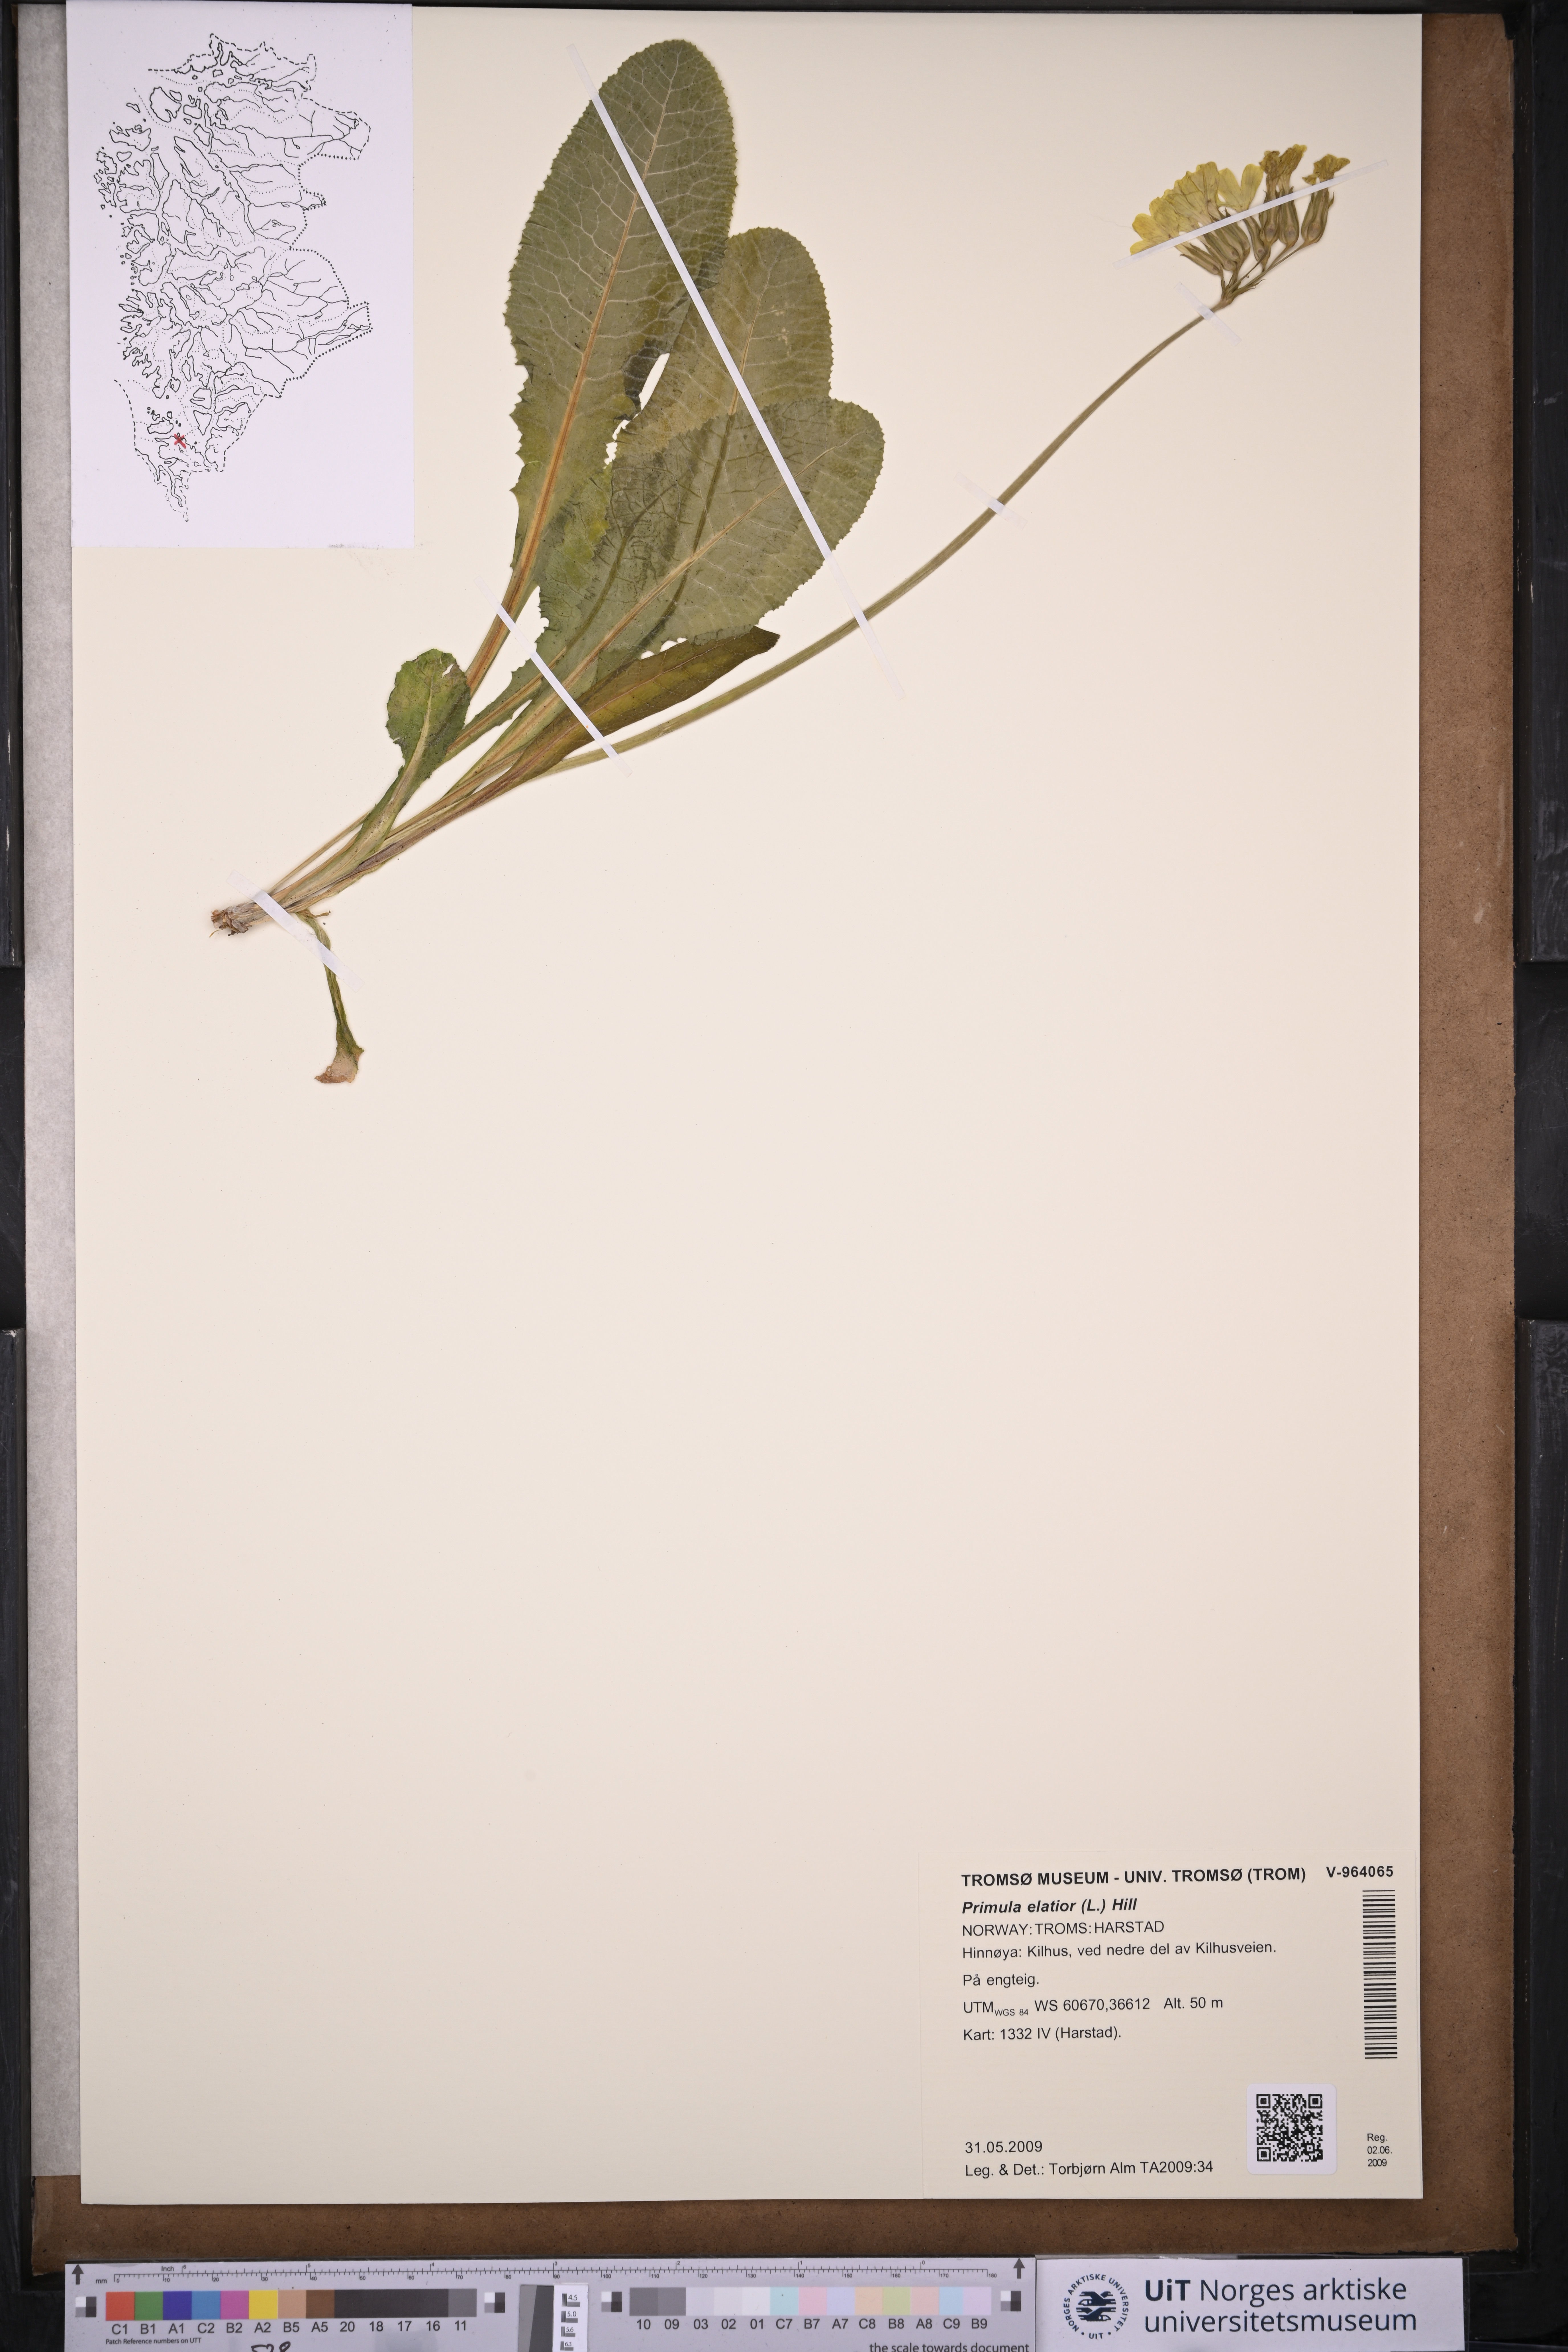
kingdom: Plantae
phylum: Tracheophyta
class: Magnoliopsida
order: Ericales
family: Primulaceae
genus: Primula
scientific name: Primula elatior
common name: Oxlip
